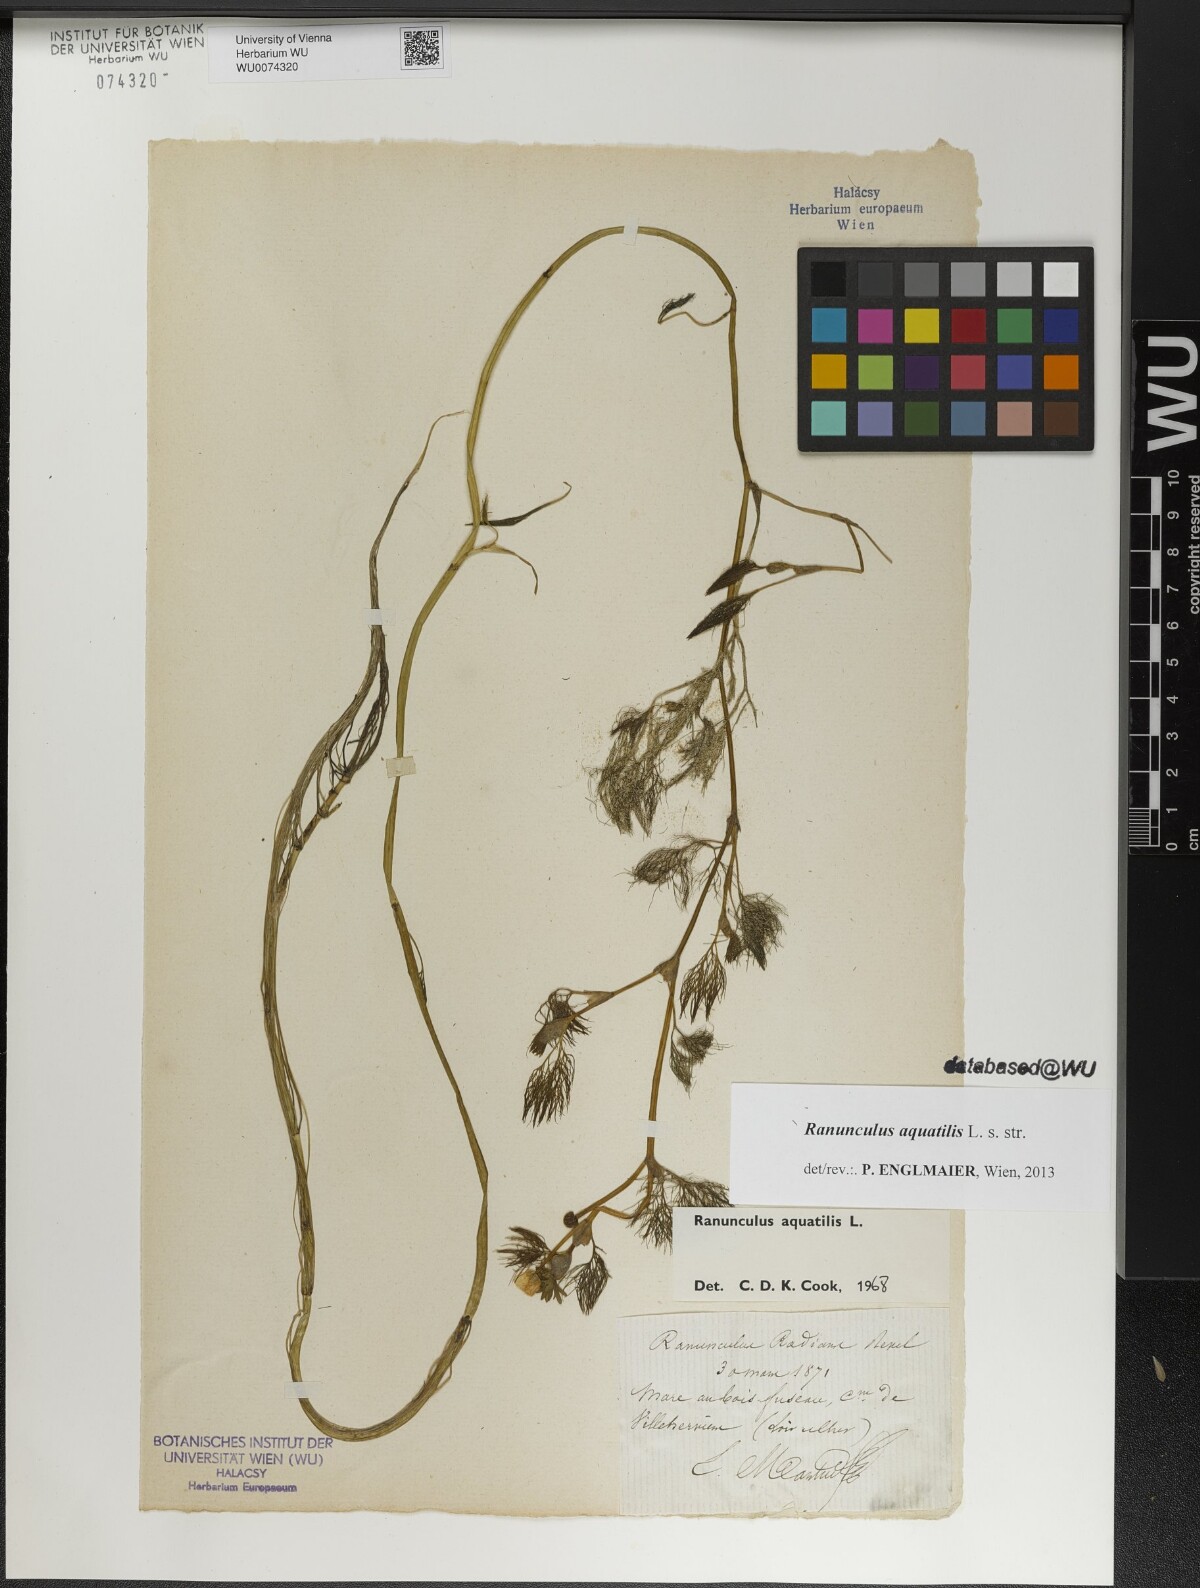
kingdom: Plantae
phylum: Tracheophyta
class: Magnoliopsida
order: Ranunculales
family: Ranunculaceae
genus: Ranunculus
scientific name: Ranunculus aquatilis
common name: Common water-crowfoot
